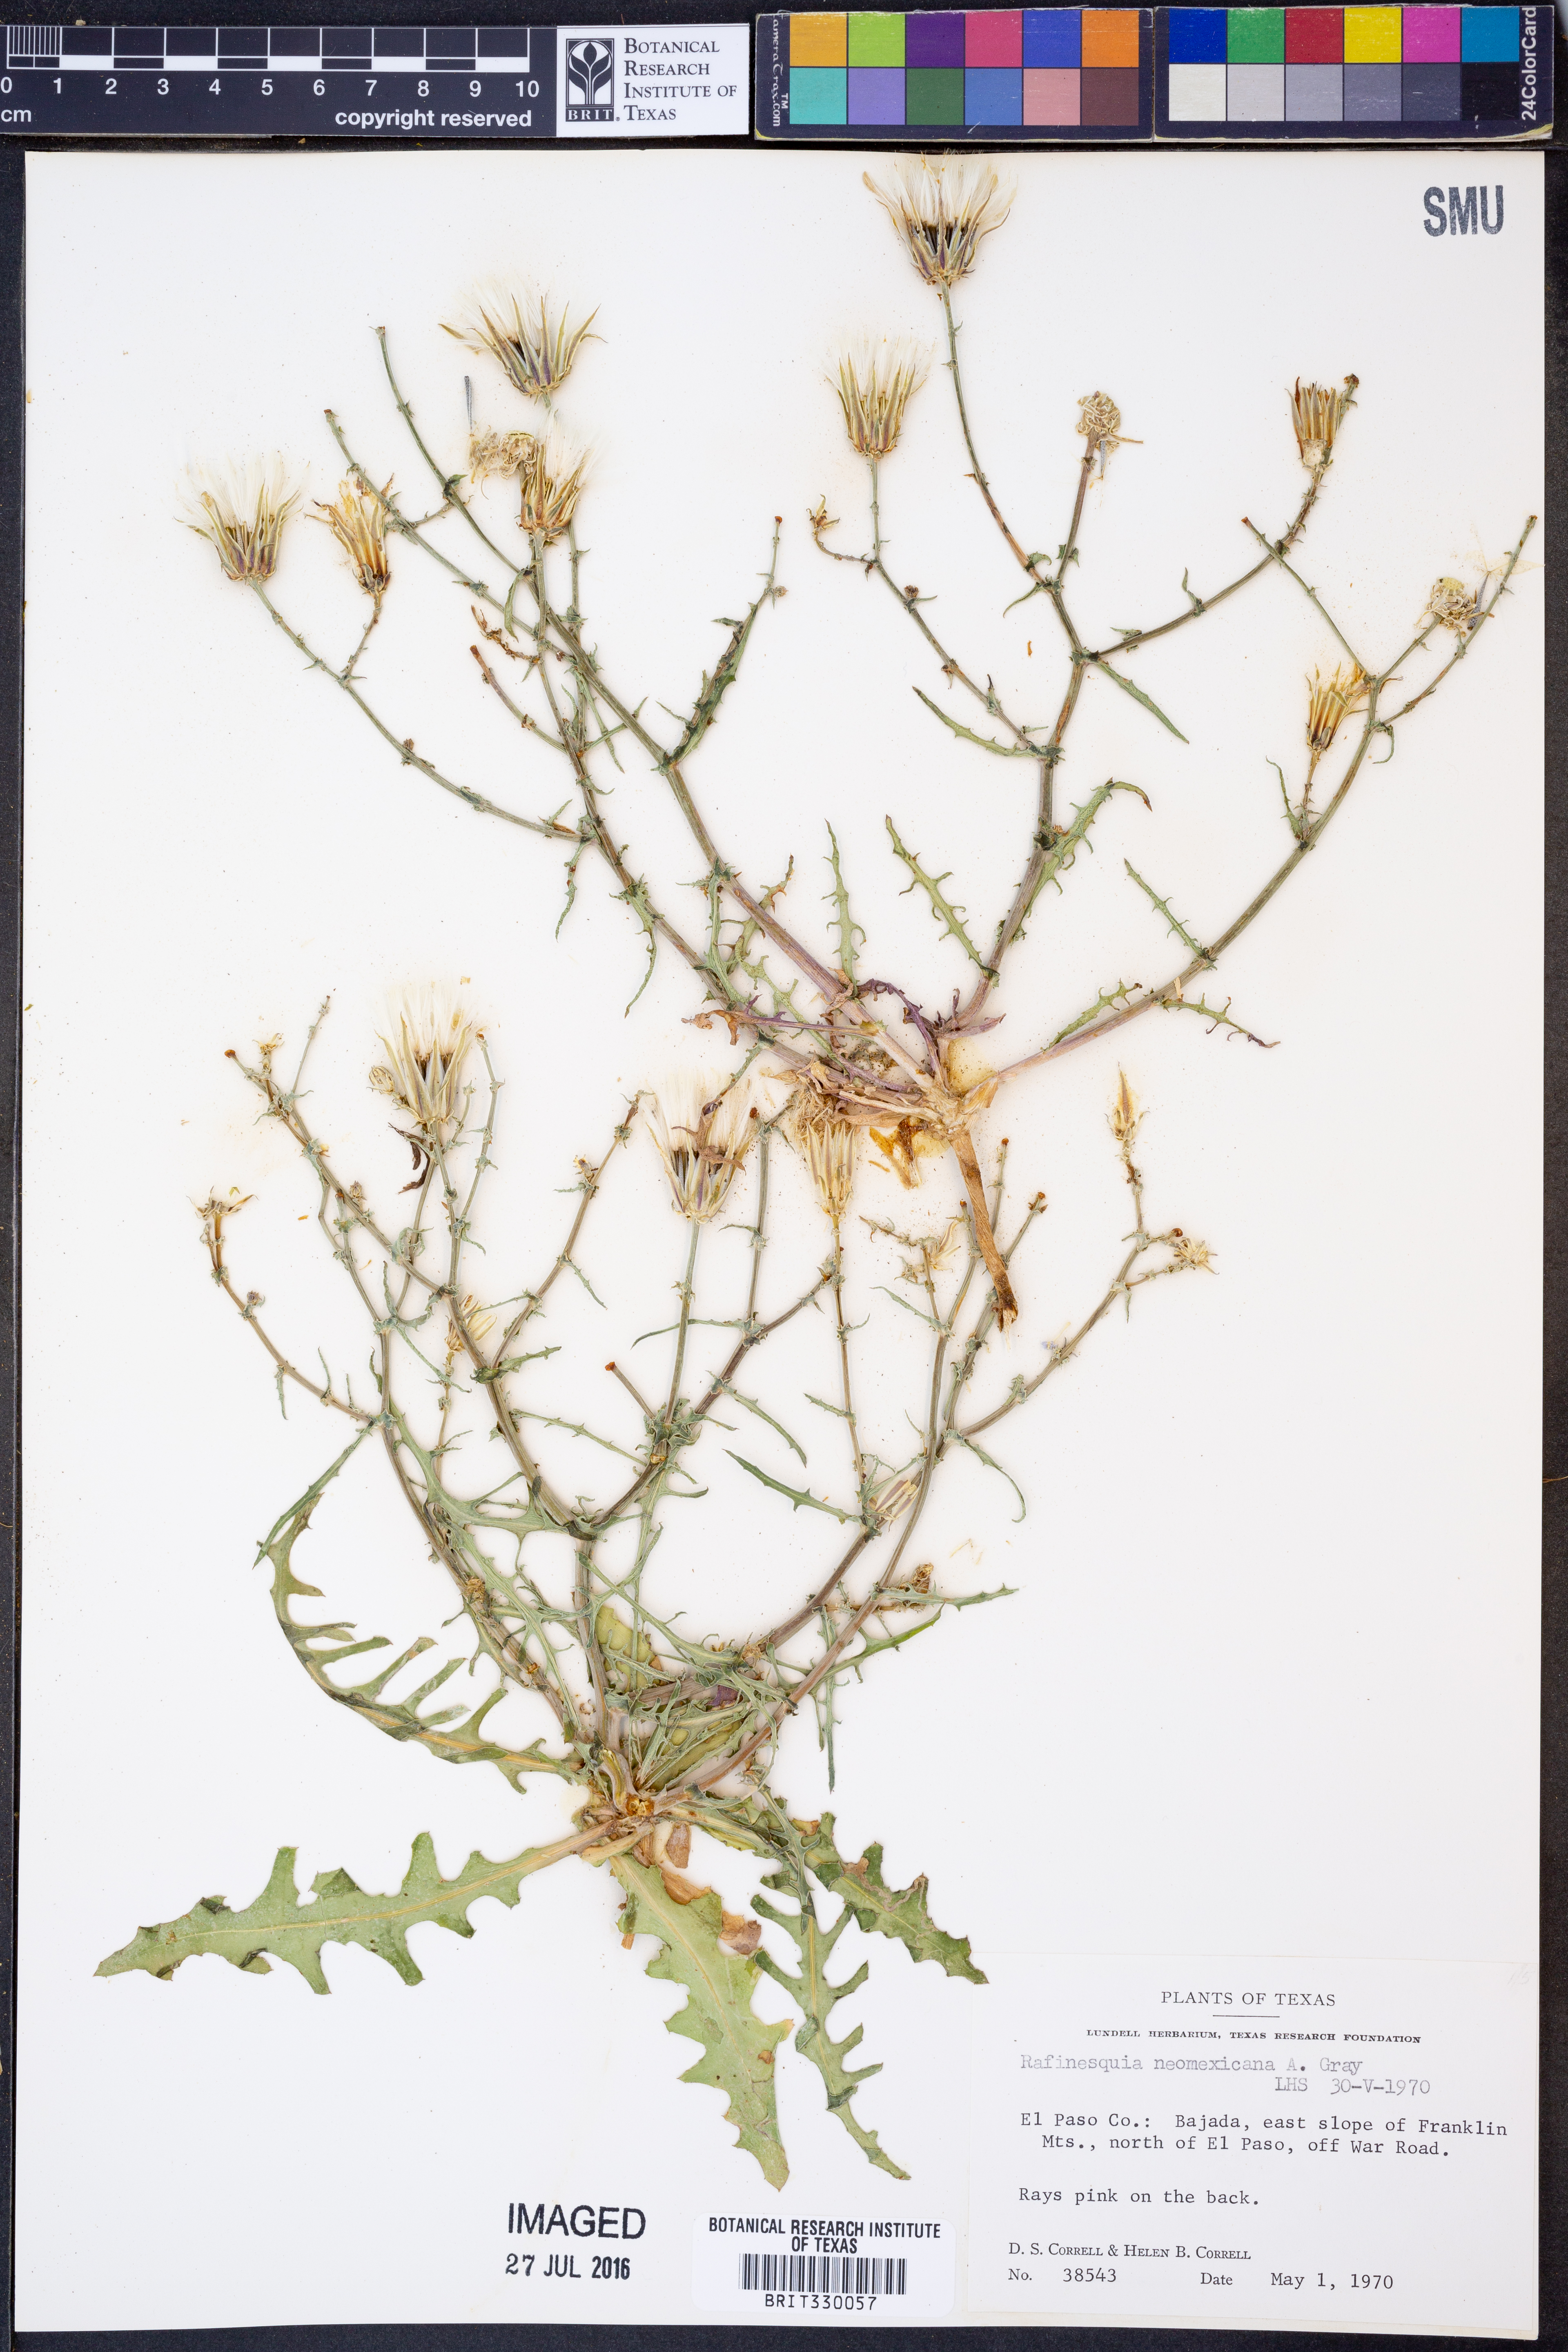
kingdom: Plantae
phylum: Tracheophyta
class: Magnoliopsida
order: Asterales
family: Asteraceae
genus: Rafinesquia
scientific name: Rafinesquia neomexicana
